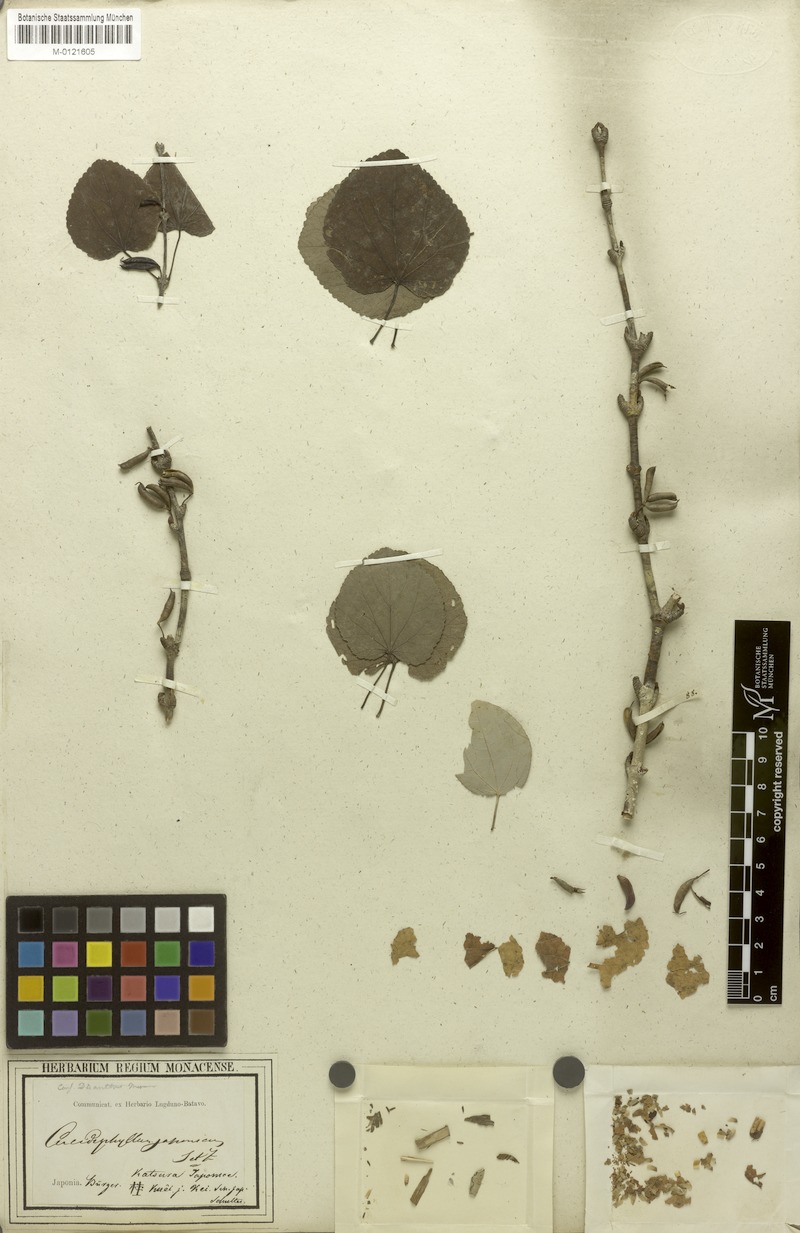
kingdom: Plantae
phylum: Tracheophyta
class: Magnoliopsida
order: Saxifragales
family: Cercidiphyllaceae
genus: Cercidiphyllum
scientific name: Cercidiphyllum japonicum
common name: Katsura tree
